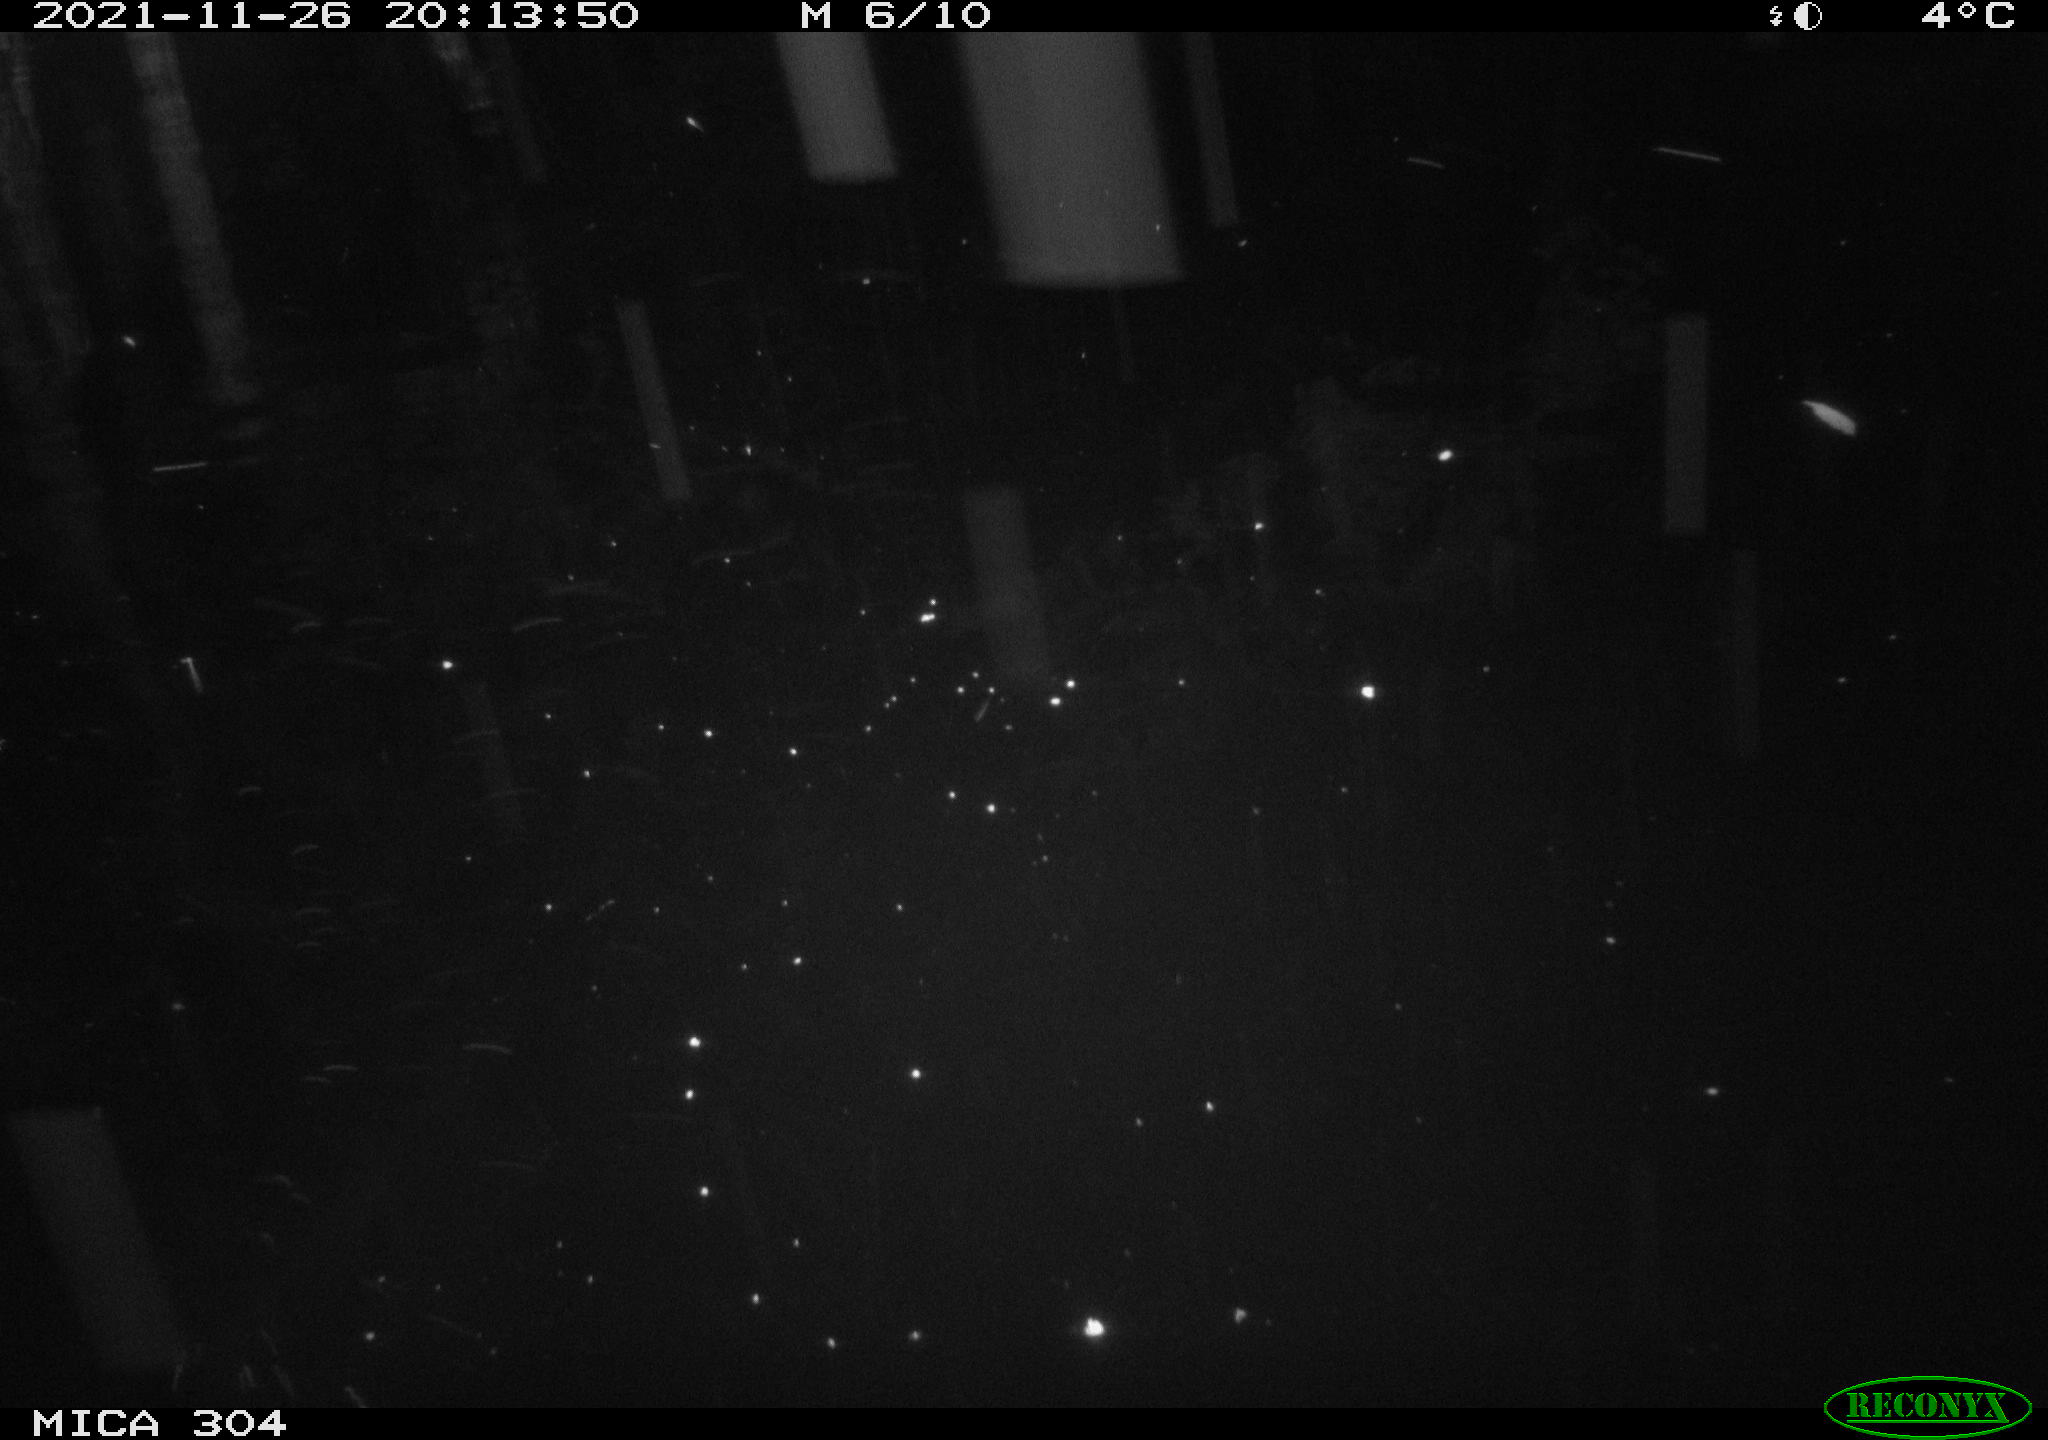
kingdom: Animalia
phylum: Chordata
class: Aves
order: Gruiformes
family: Rallidae
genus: Fulica
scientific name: Fulica atra
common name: Eurasian coot
